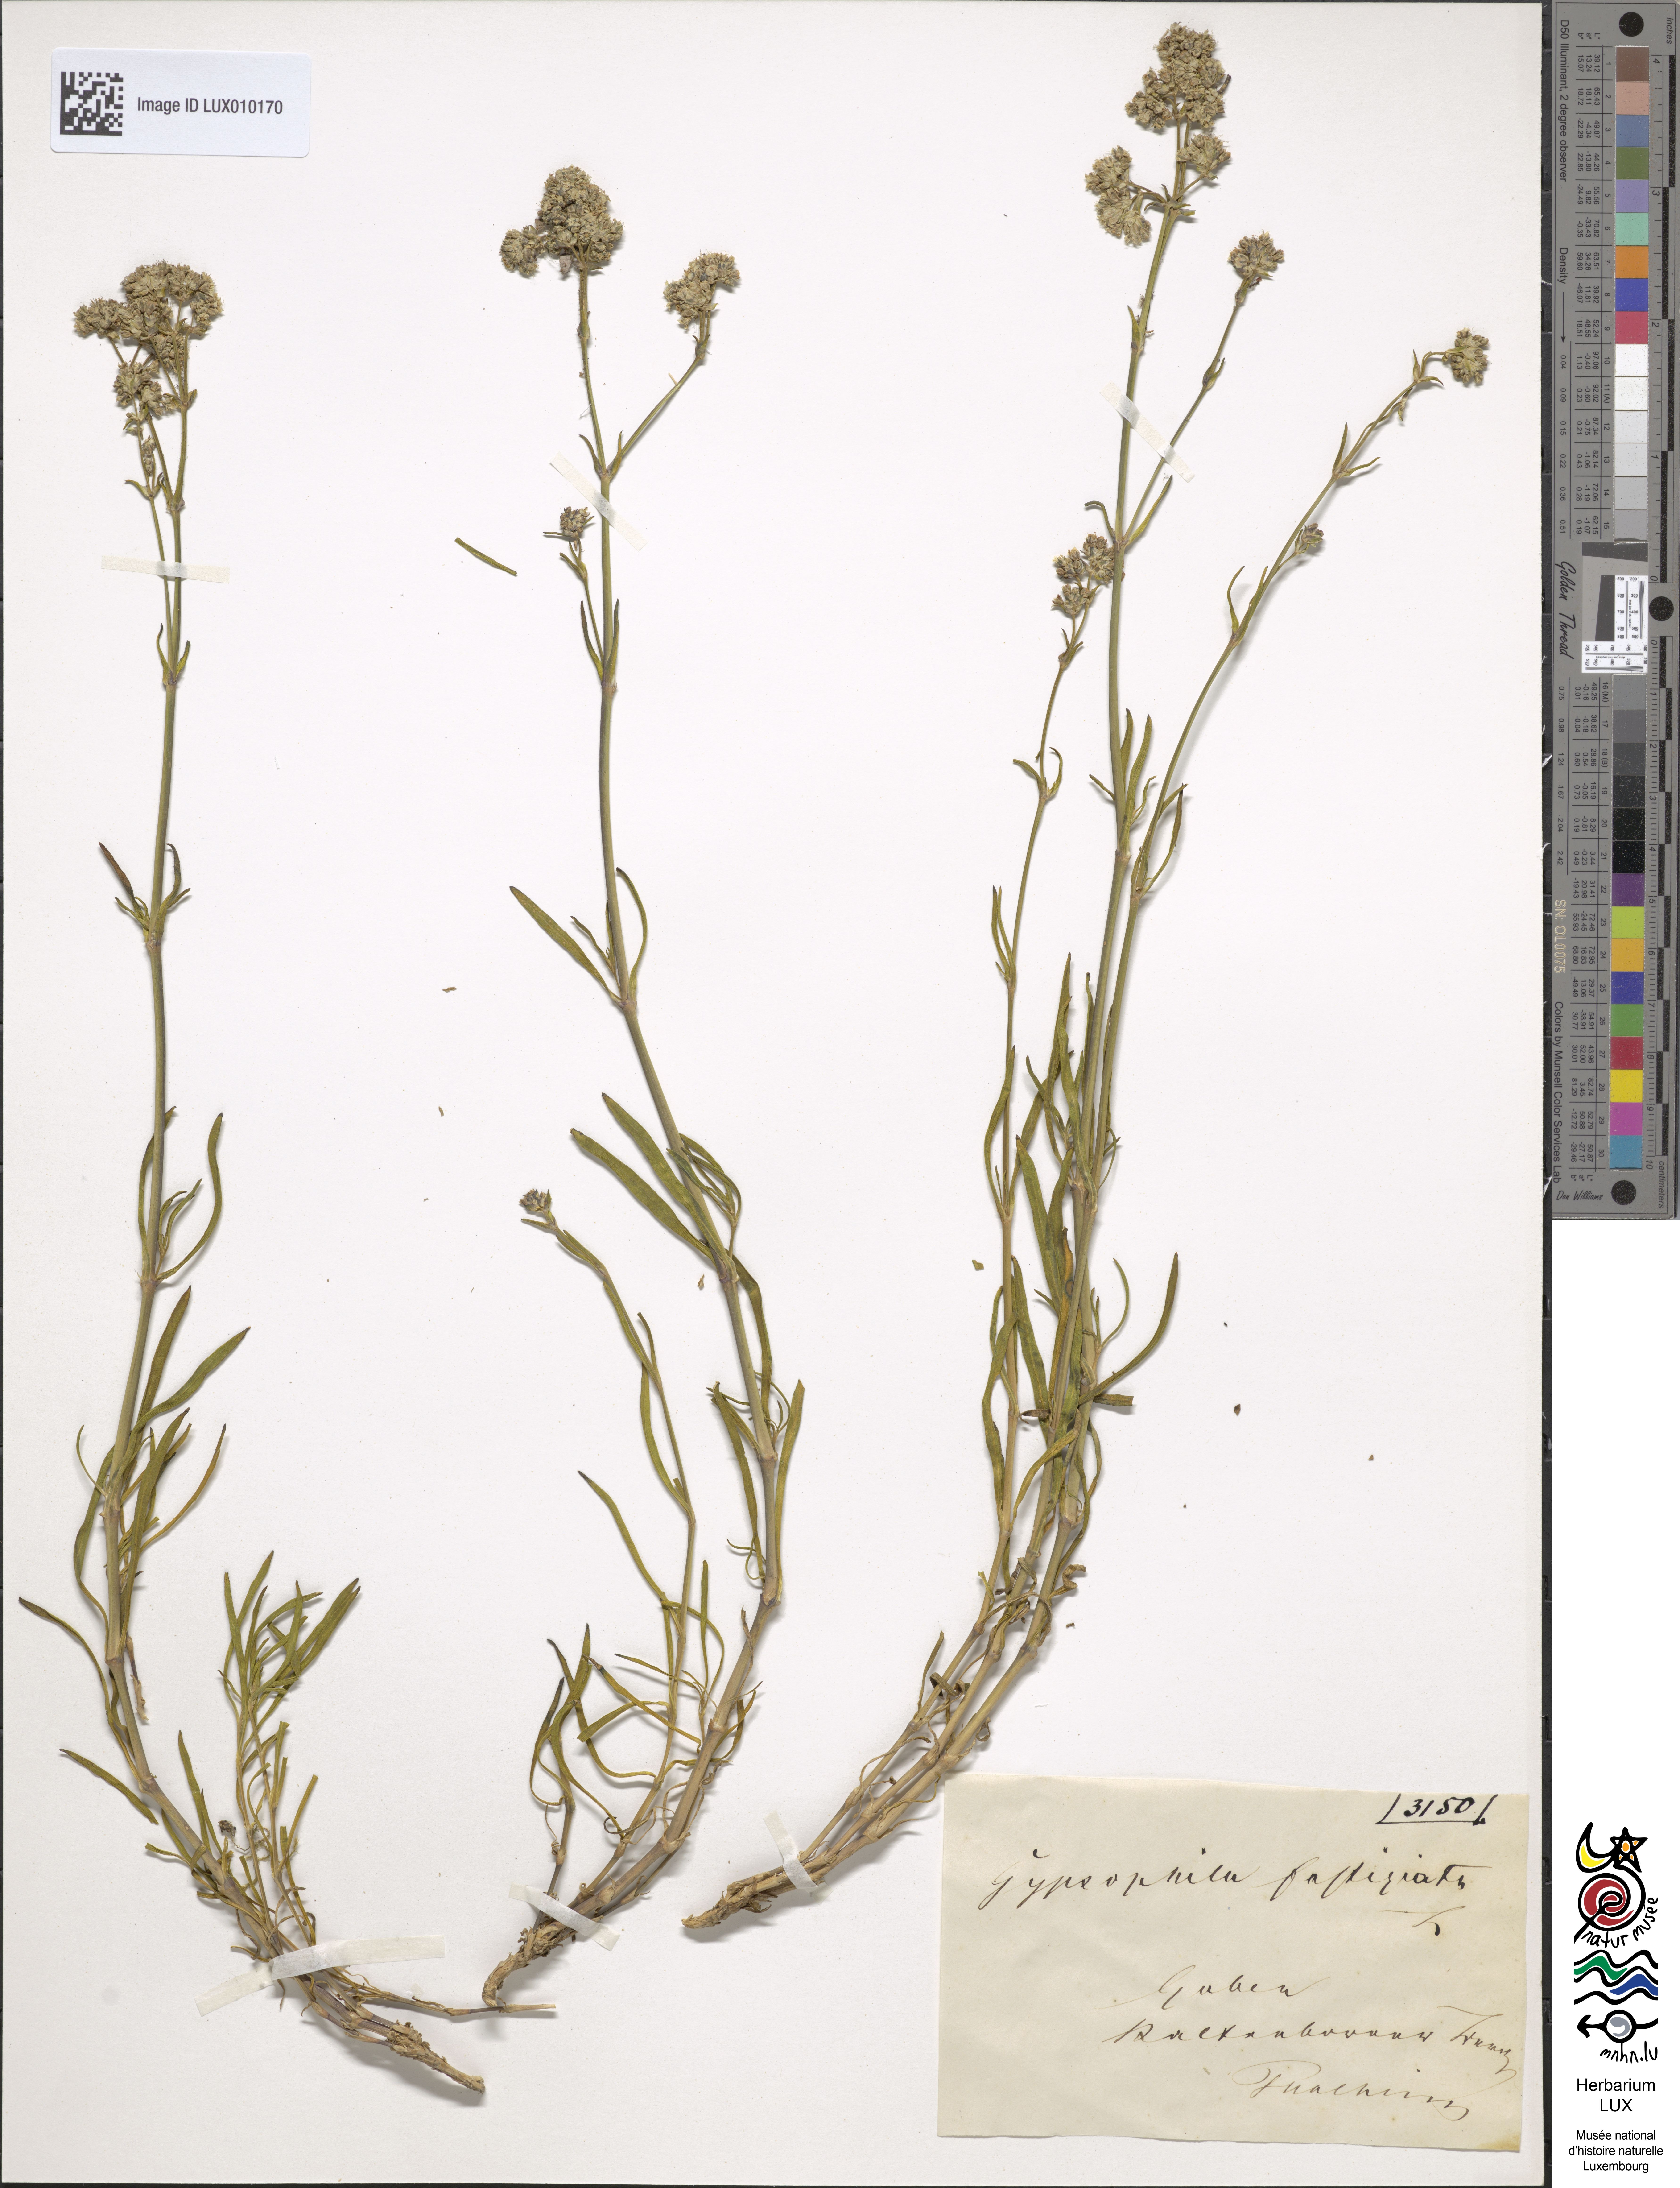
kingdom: Plantae
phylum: Tracheophyta
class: Magnoliopsida
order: Caryophyllales
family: Caryophyllaceae
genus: Gypsophila
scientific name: Gypsophila fastigiata
